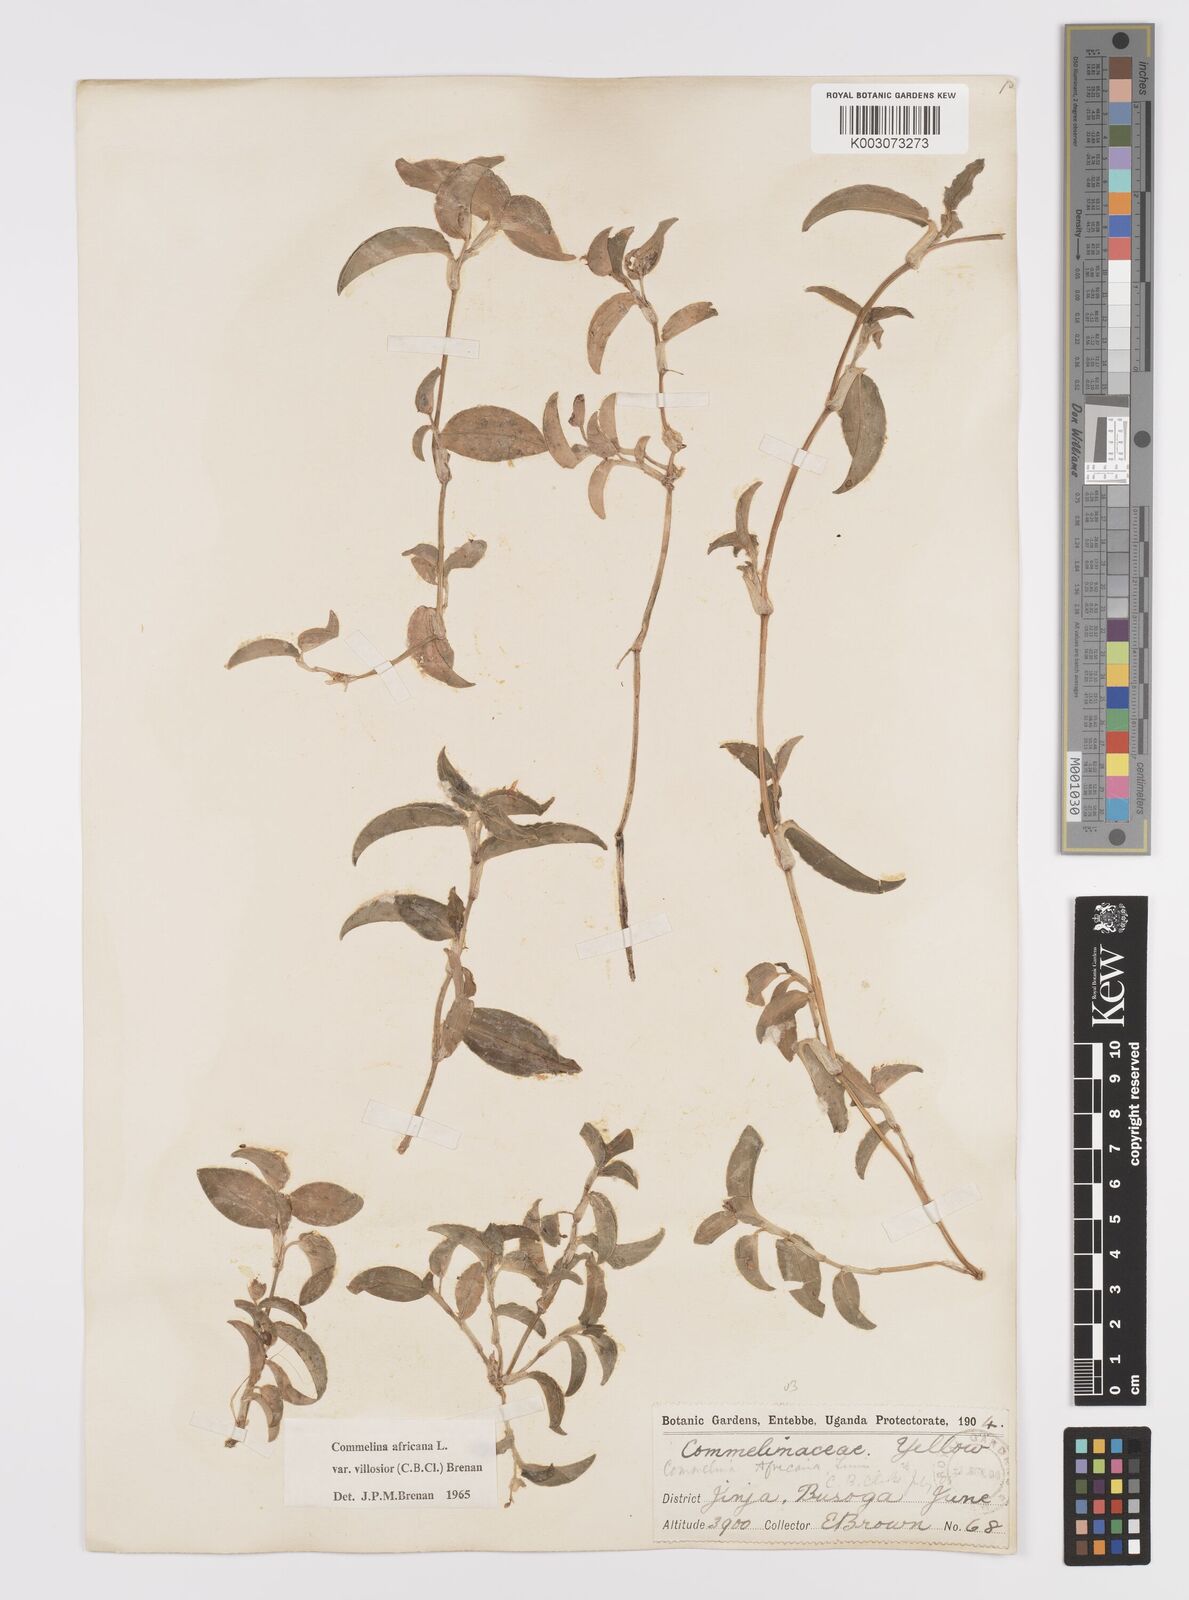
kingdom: Plantae
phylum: Tracheophyta
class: Liliopsida
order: Commelinales
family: Commelinaceae
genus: Commelina
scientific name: Commelina africana
